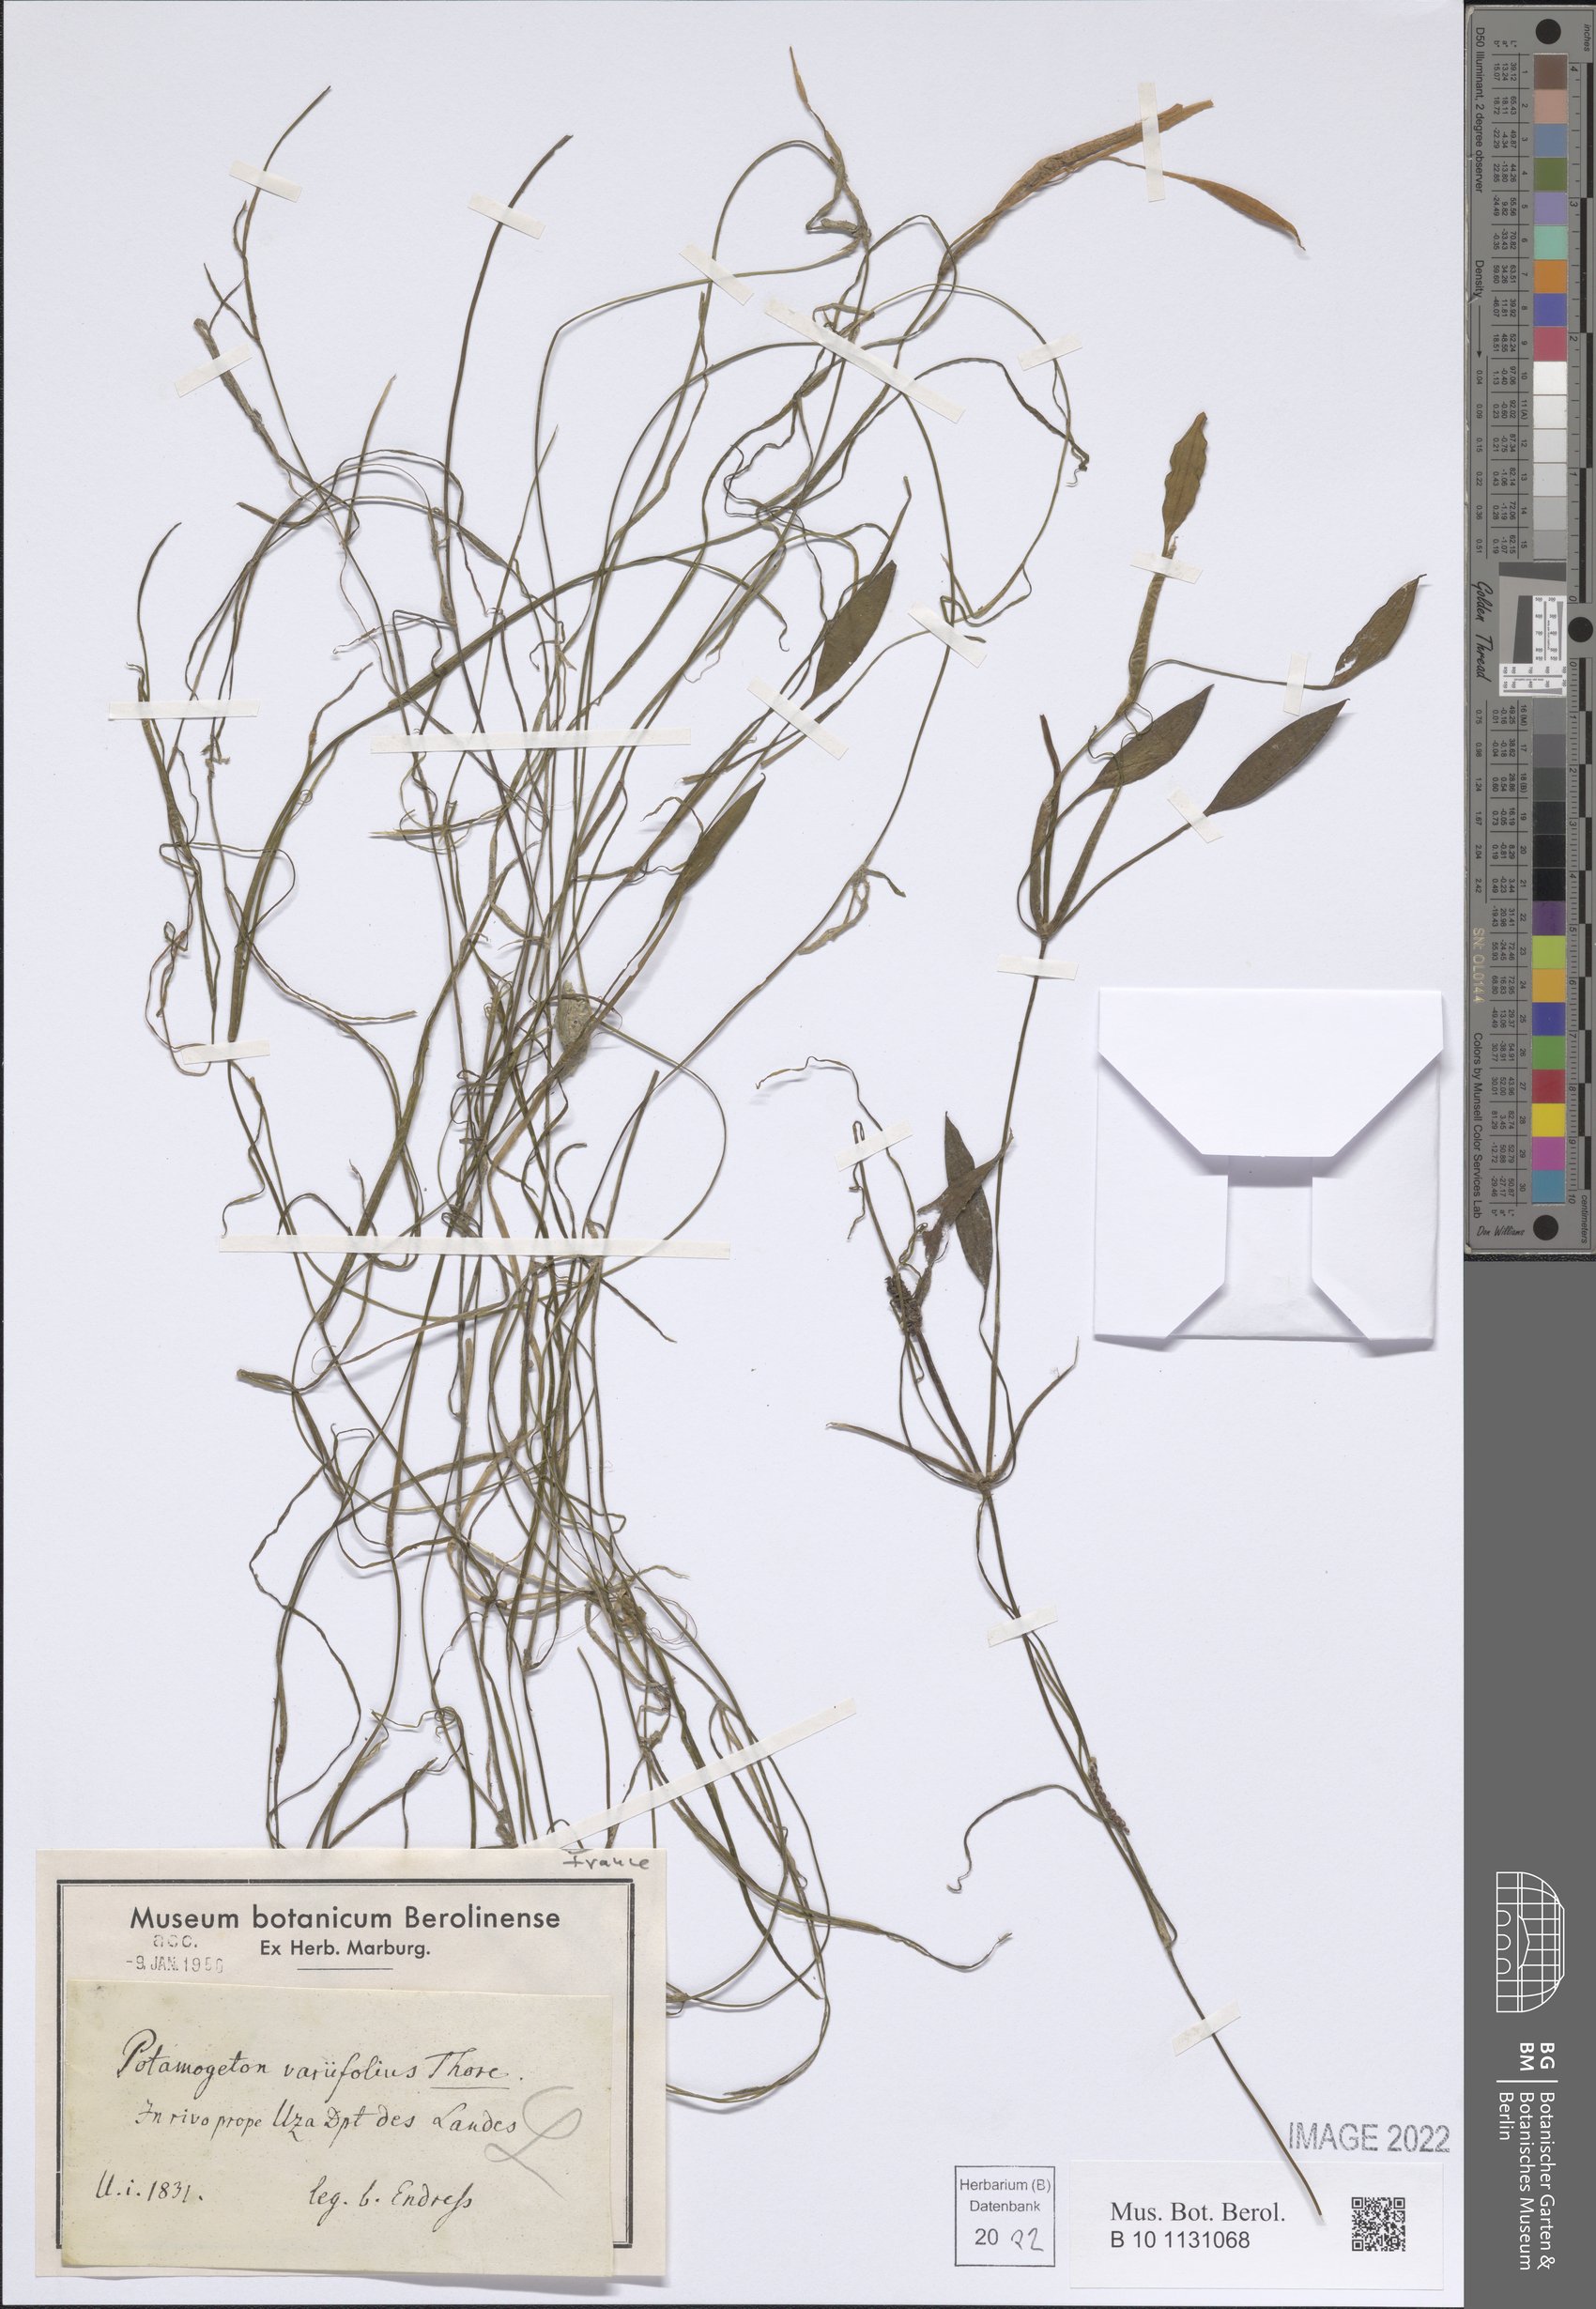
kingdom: Plantae
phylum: Tracheophyta
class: Liliopsida
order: Alismatales
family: Potamogetonaceae
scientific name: Potamogetonaceae
